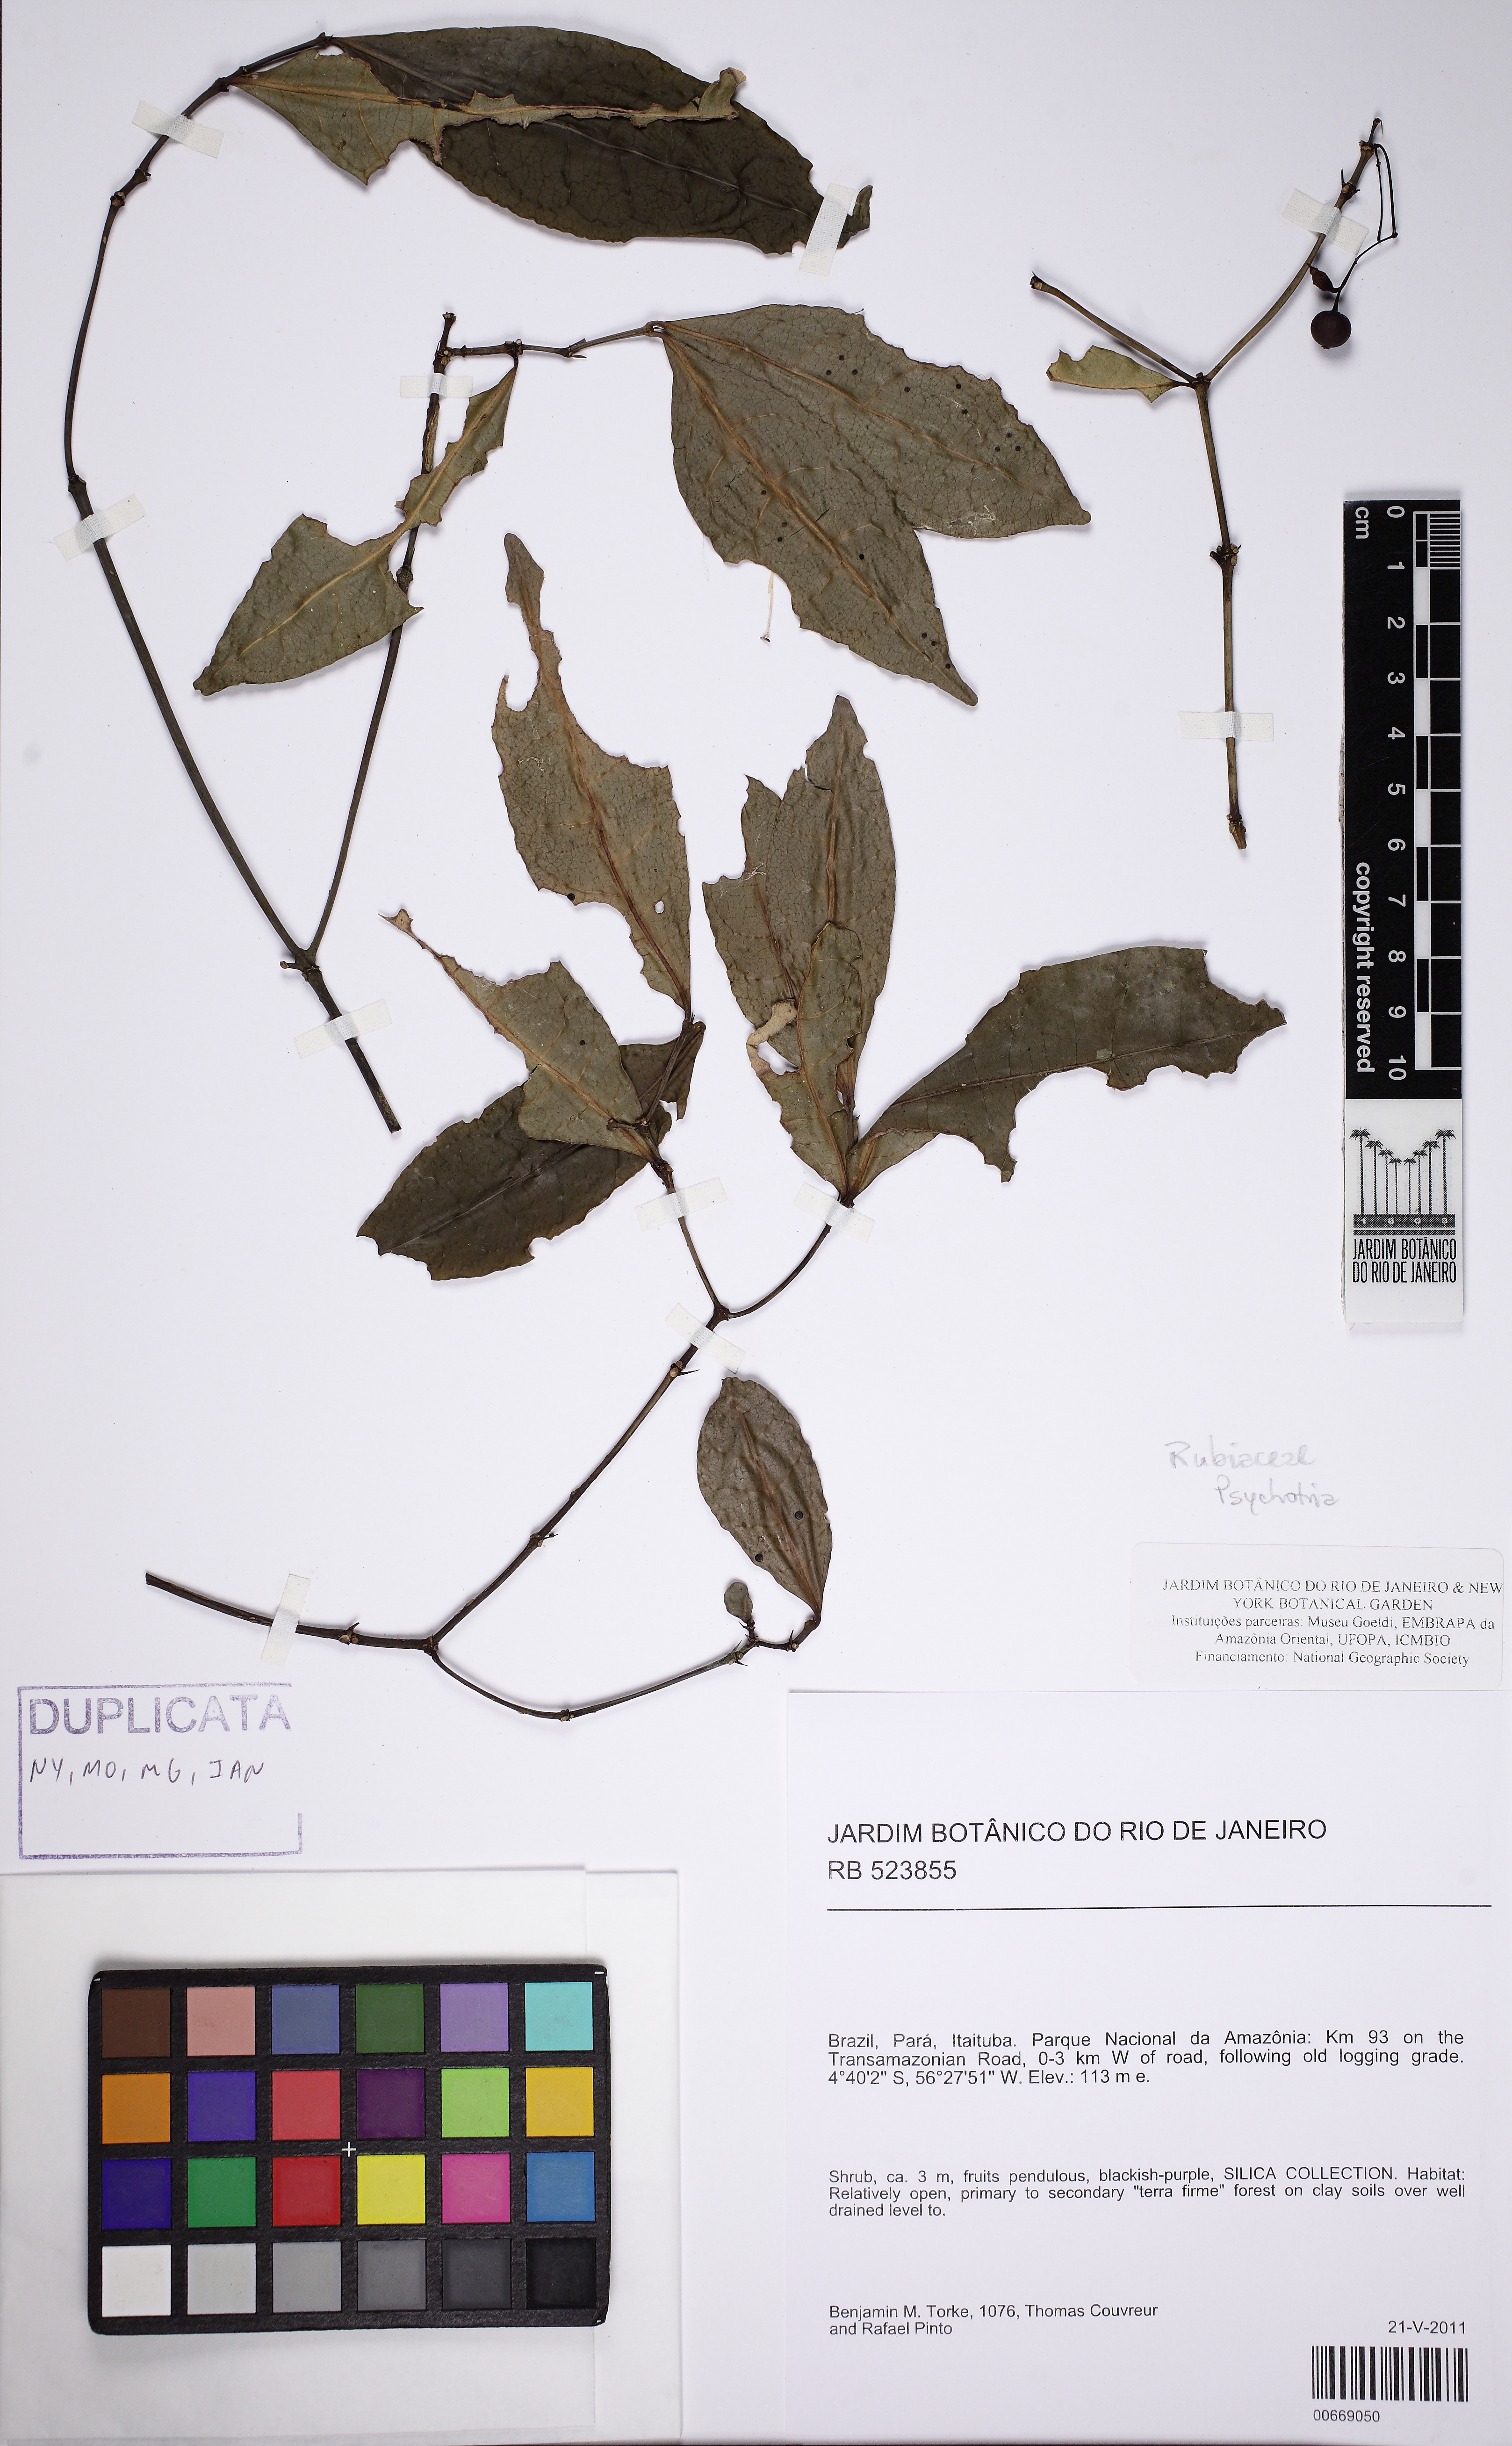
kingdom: Plantae
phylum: Tracheophyta
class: Magnoliopsida
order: Gentianales
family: Rubiaceae
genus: Ixora
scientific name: Ixora
